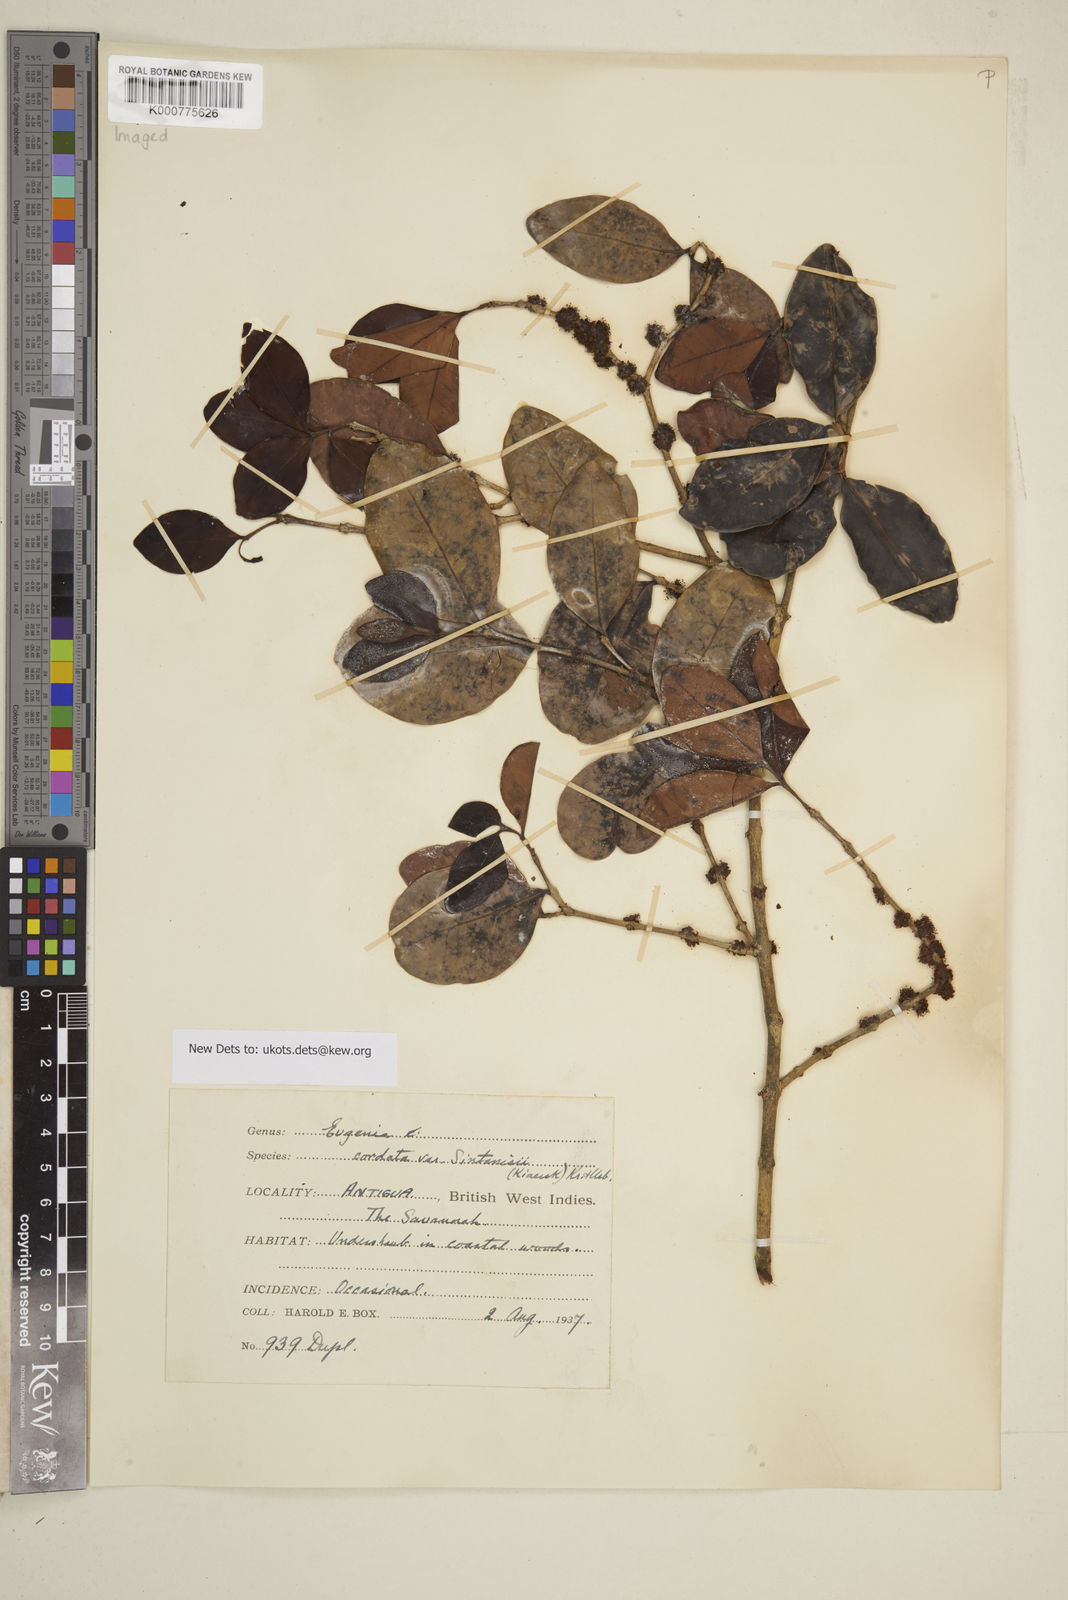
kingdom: Plantae
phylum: Tracheophyta
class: Magnoliopsida
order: Myrtales
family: Myrtaceae
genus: Eugenia
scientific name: Eugenia cordata
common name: Lathberry
